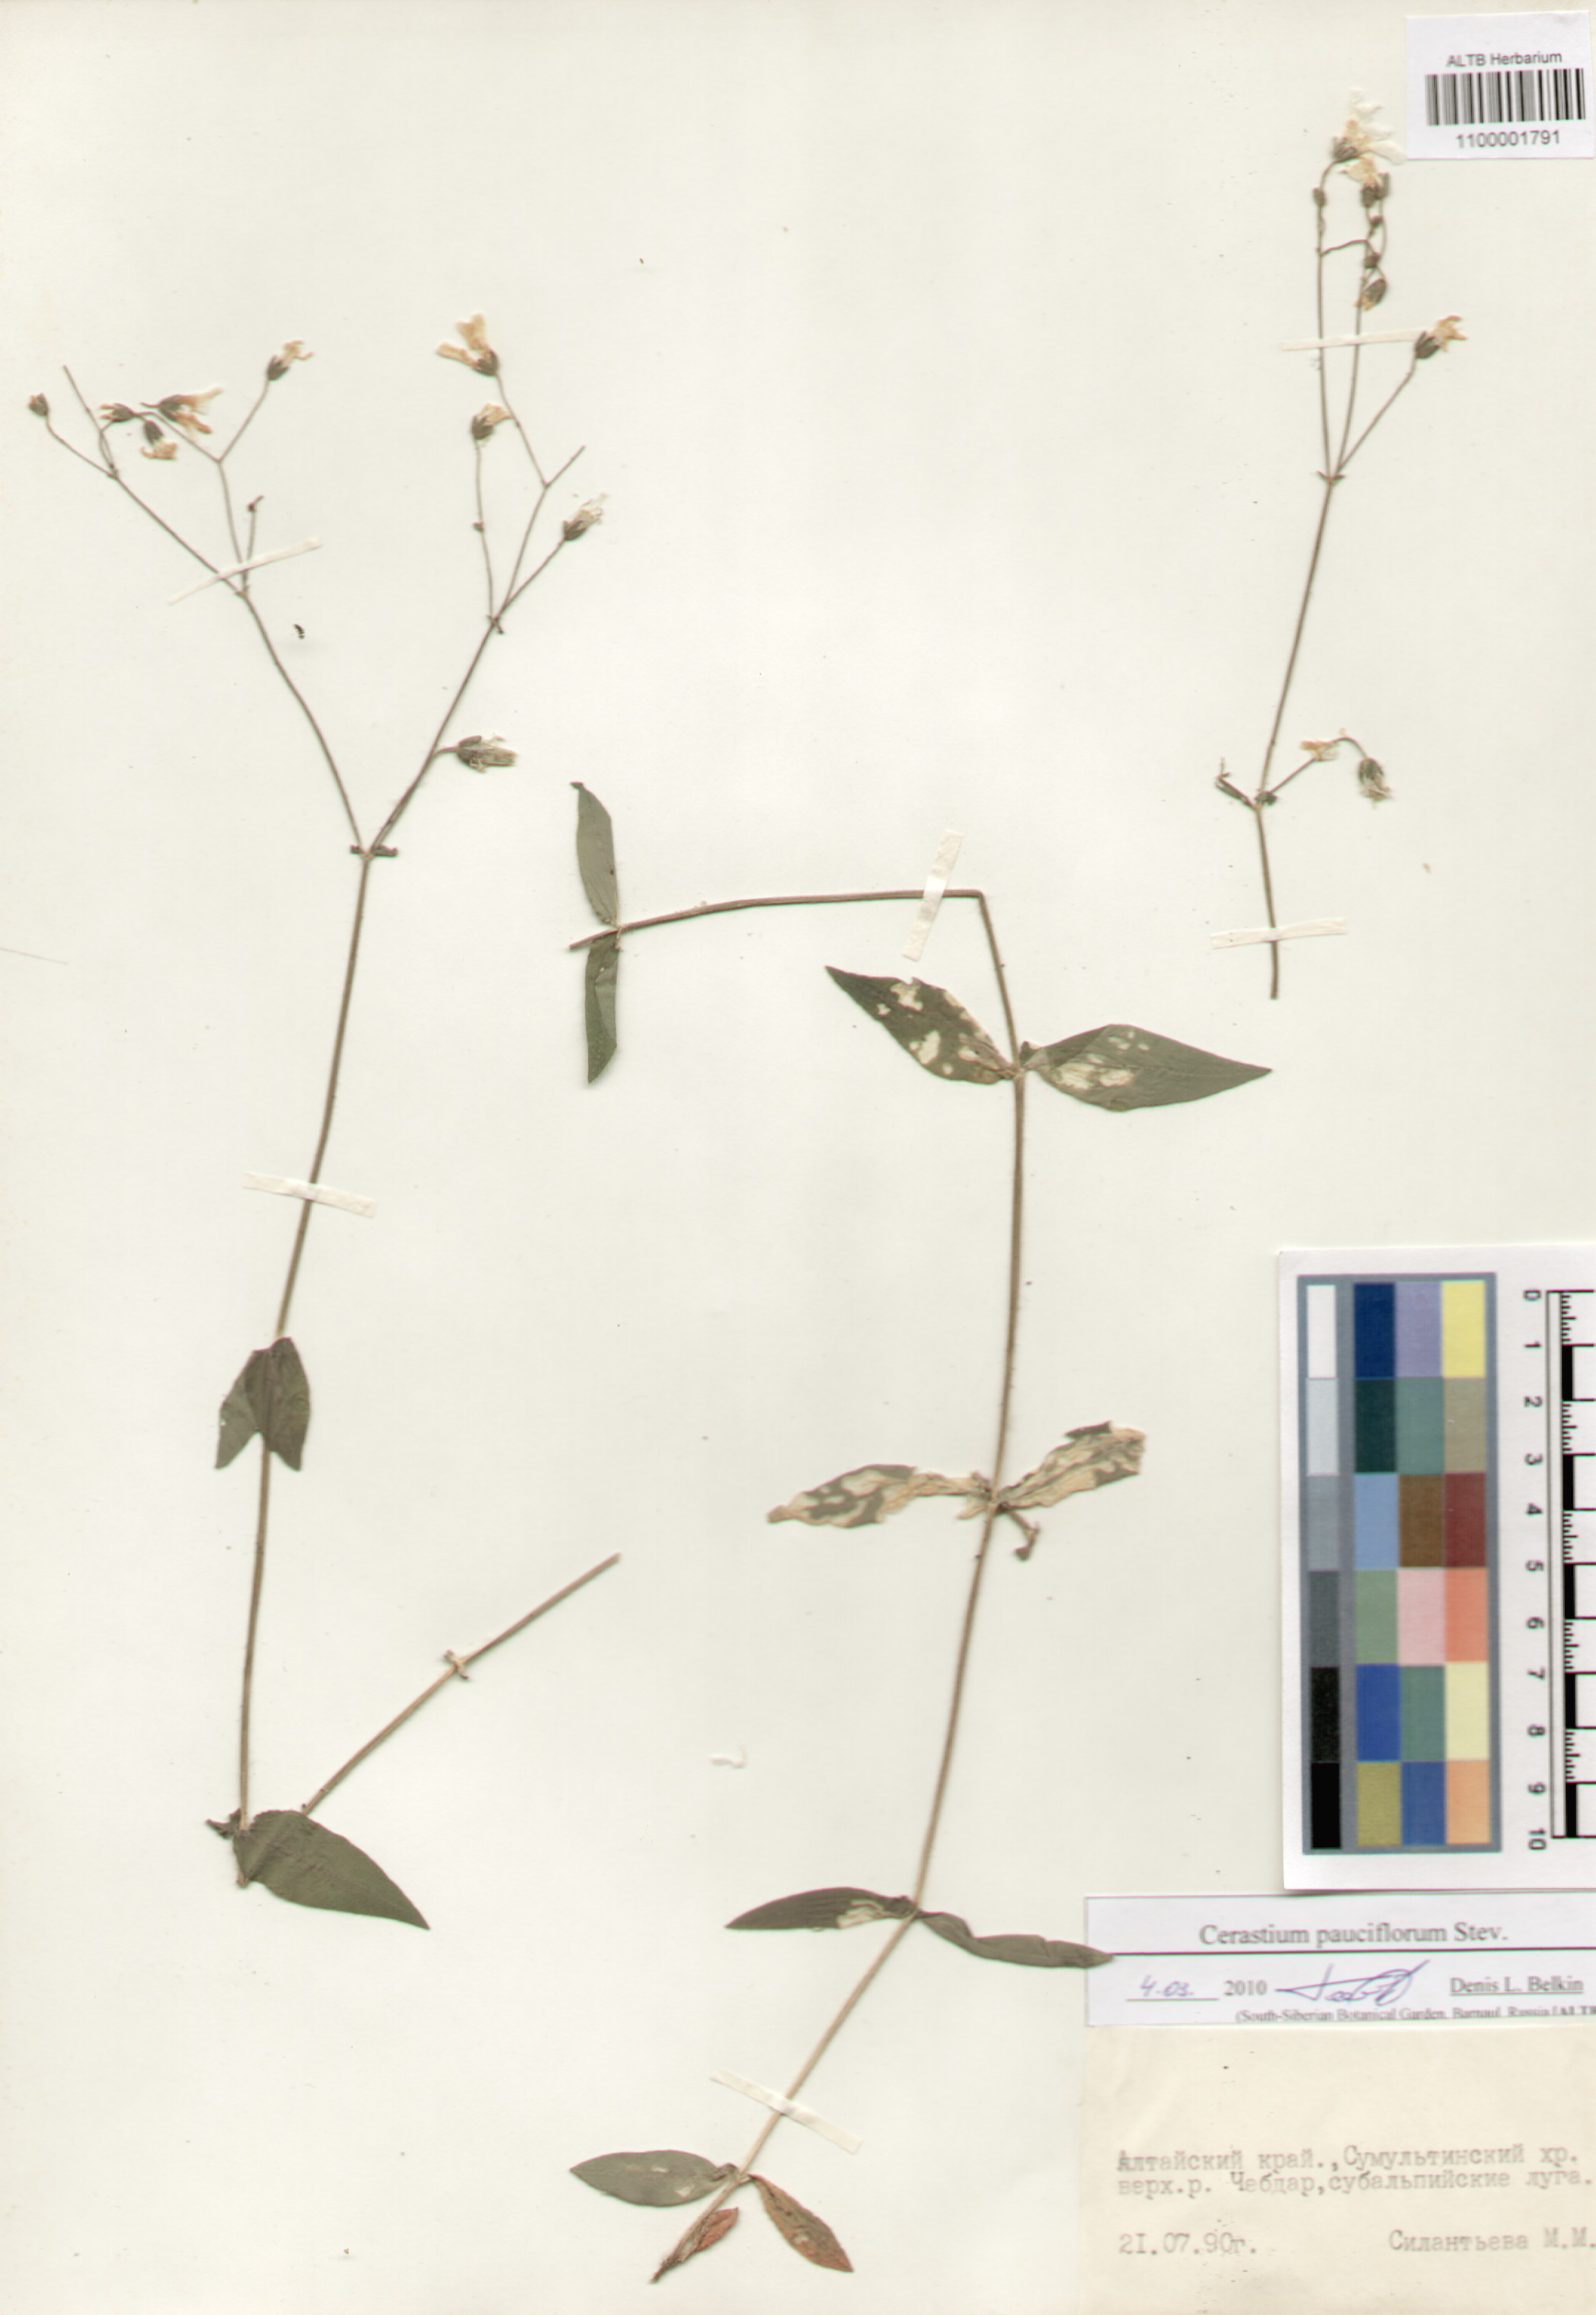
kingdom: Plantae
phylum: Tracheophyta
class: Magnoliopsida
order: Caryophyllales
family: Caryophyllaceae
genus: Cerastium
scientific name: Cerastium pauciflorum
